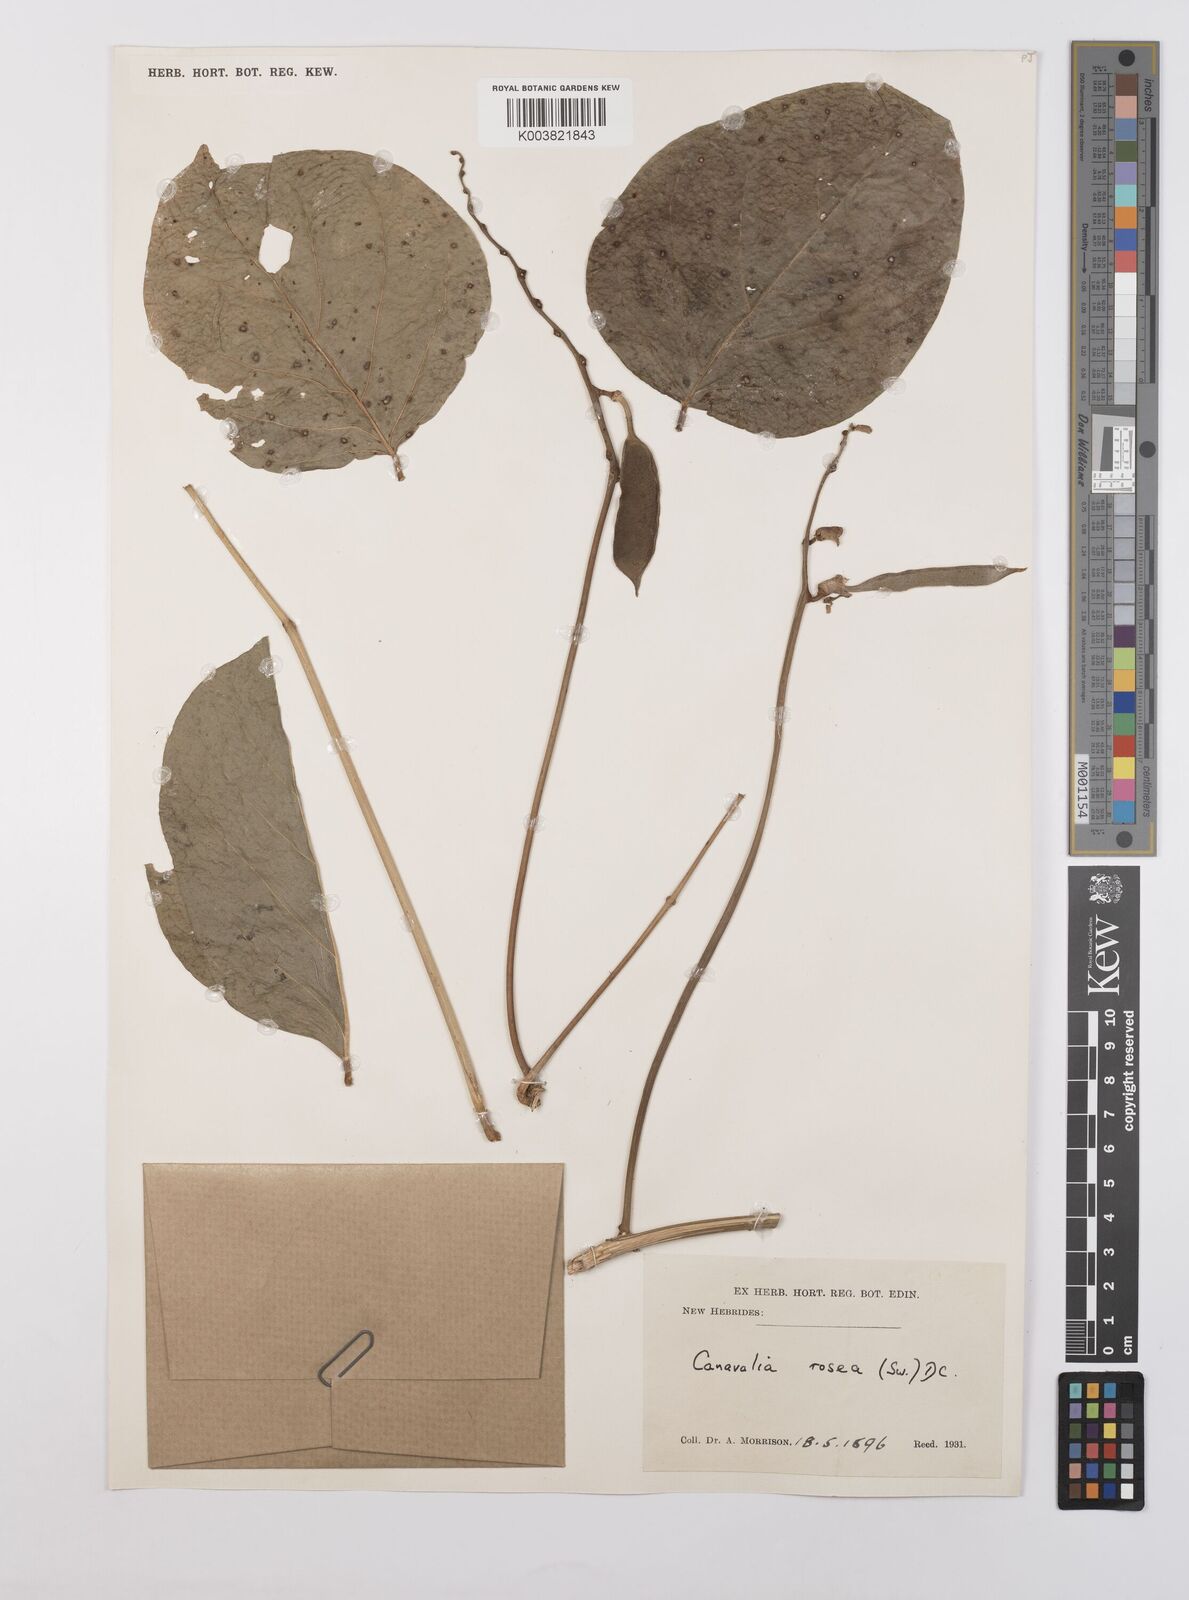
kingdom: Plantae
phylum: Tracheophyta
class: Magnoliopsida
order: Fabales
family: Fabaceae
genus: Canavalia
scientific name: Canavalia rosea
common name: Beach-bean
